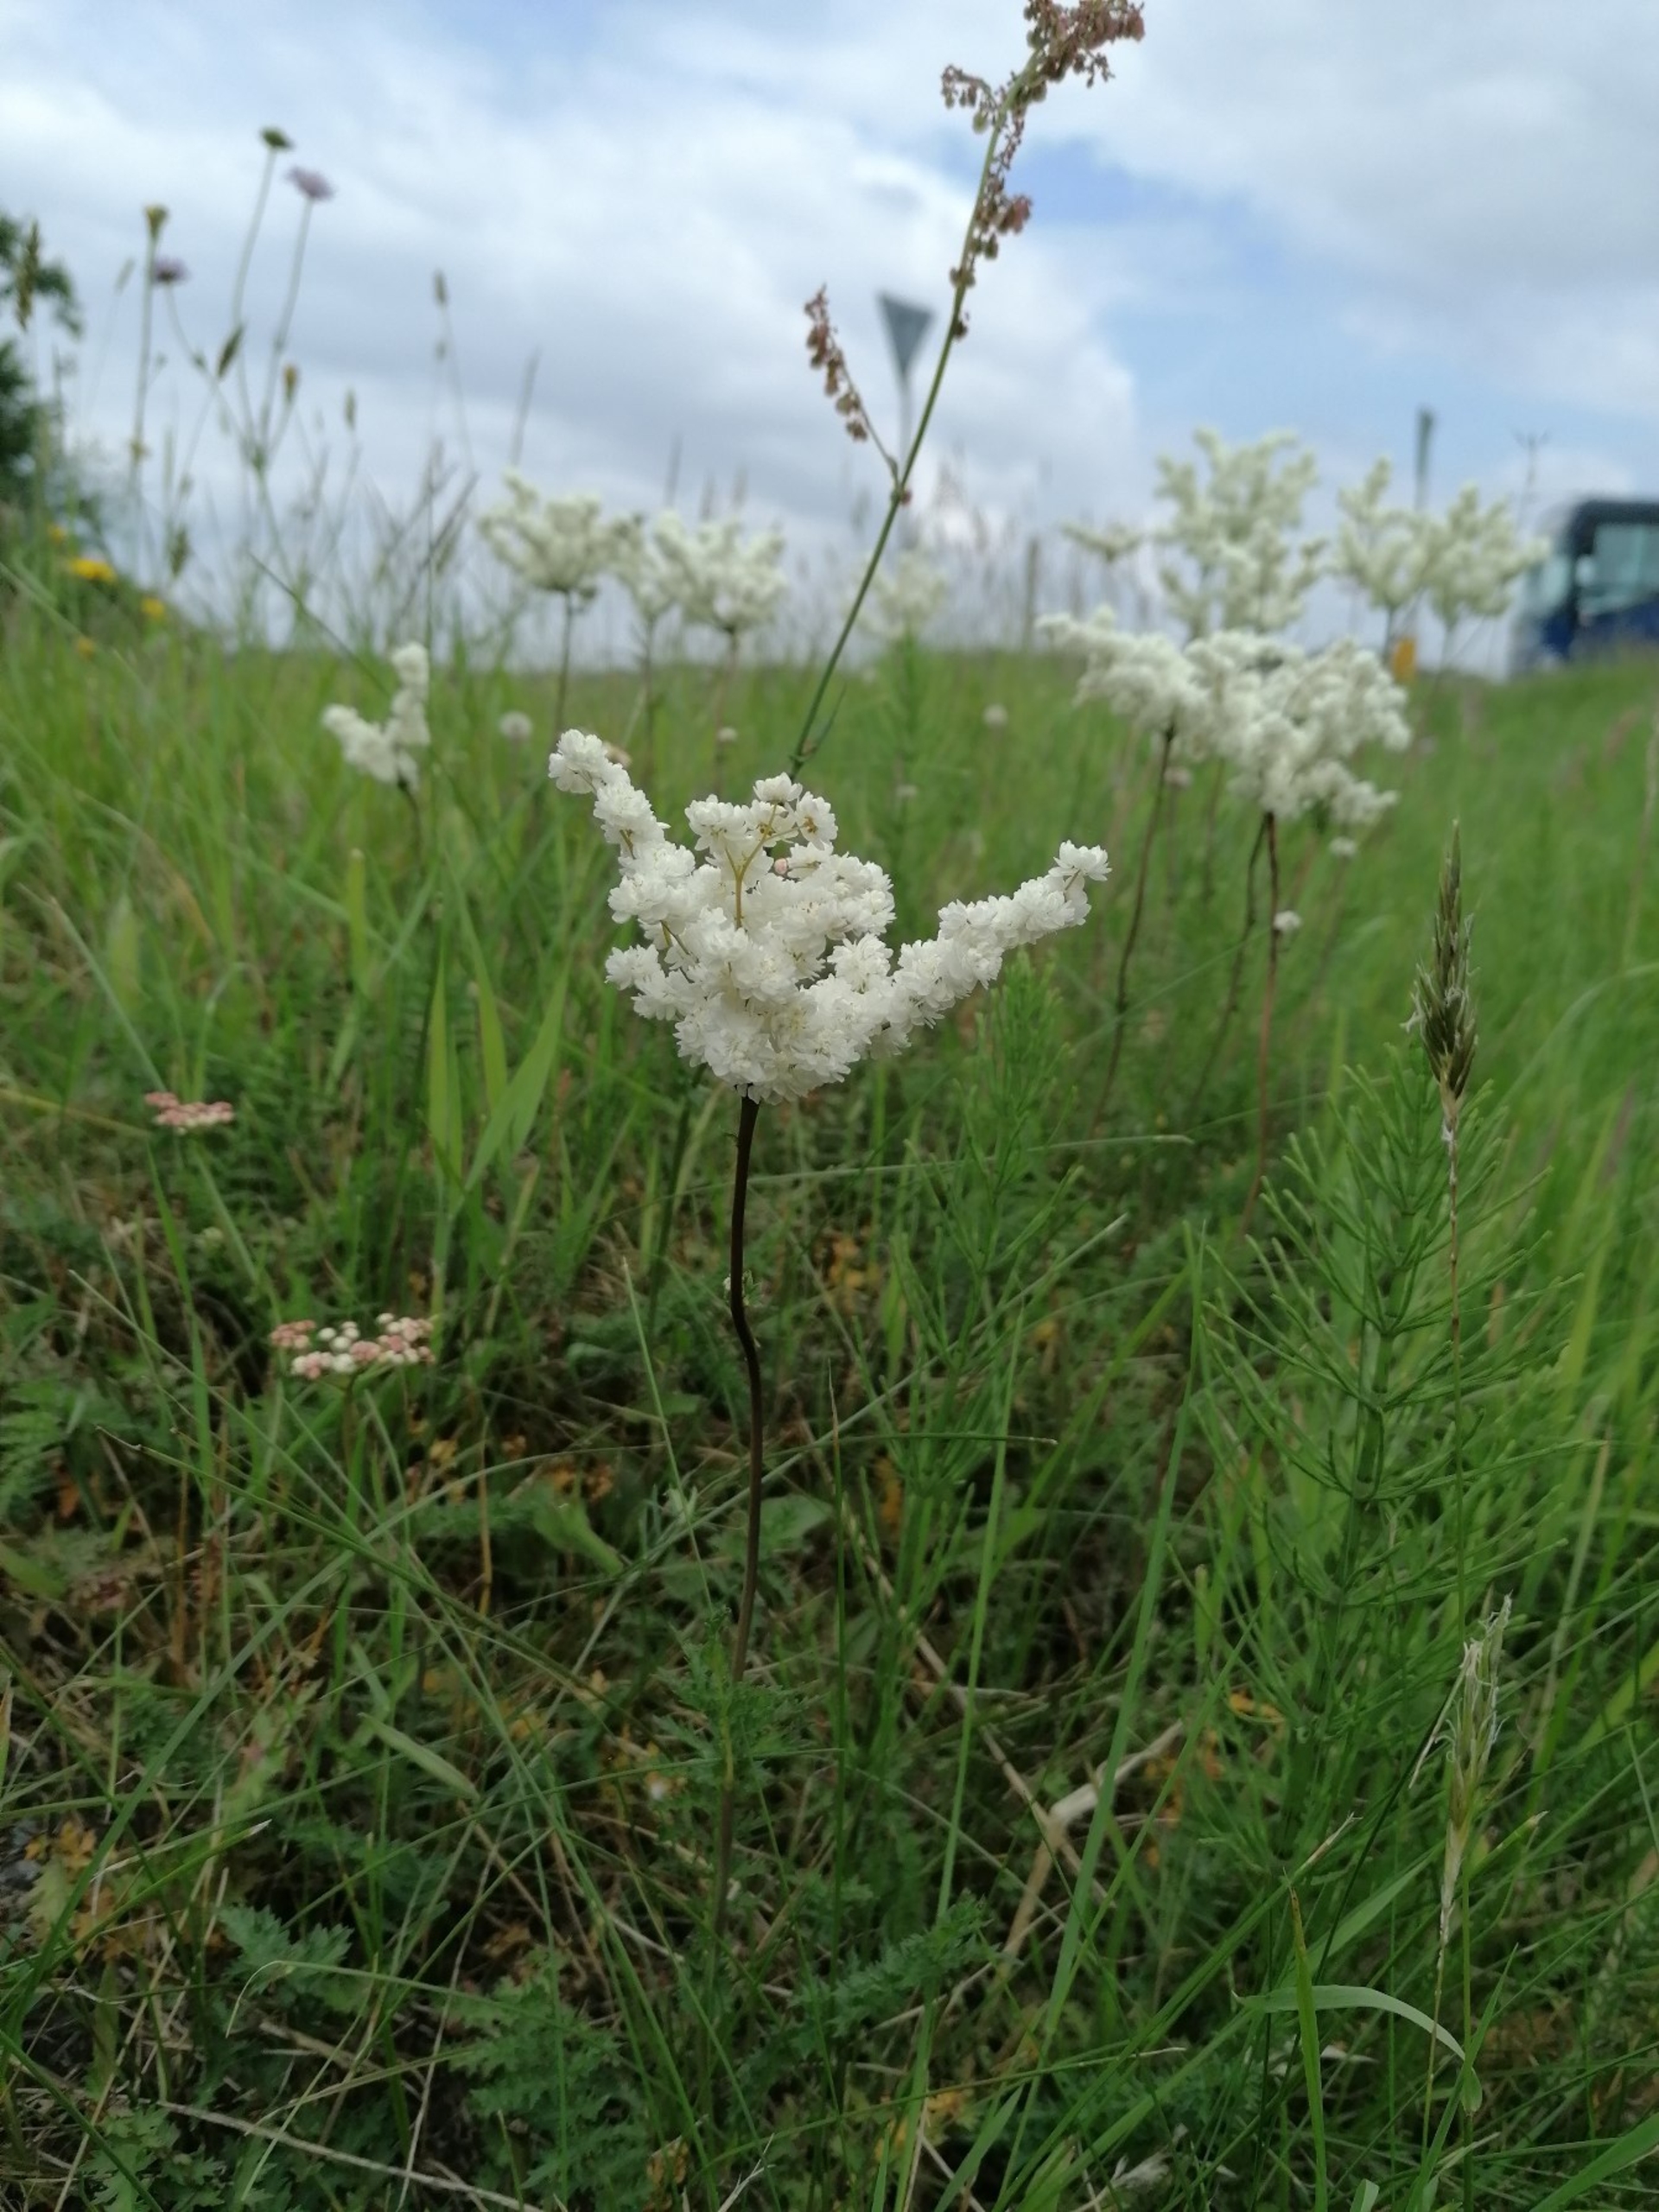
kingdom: Plantae
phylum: Tracheophyta
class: Magnoliopsida
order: Rosales
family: Rosaceae
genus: Filipendula
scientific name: Filipendula vulgaris
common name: Knoldet mjødurt
